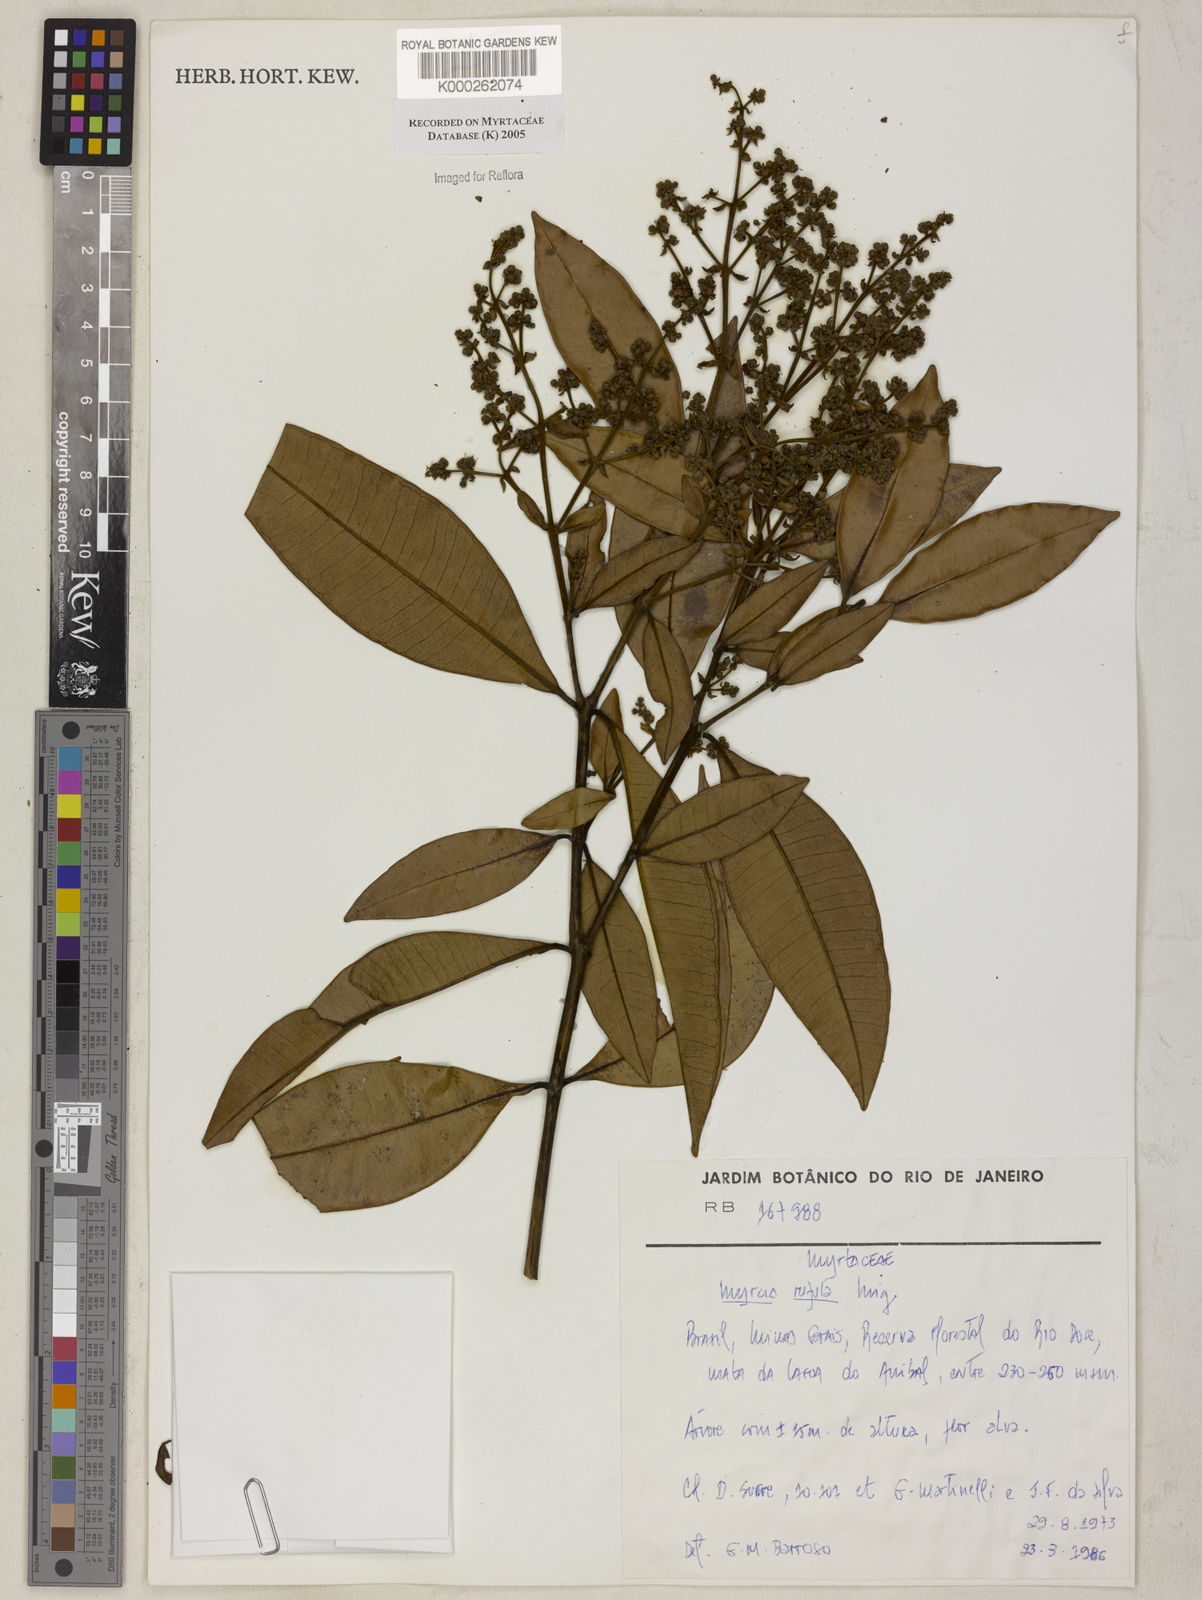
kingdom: Plantae
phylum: Tracheophyta
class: Magnoliopsida
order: Myrtales
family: Myrtaceae
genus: Myrcia
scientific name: Myrcia splendens
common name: Surinam cherry
